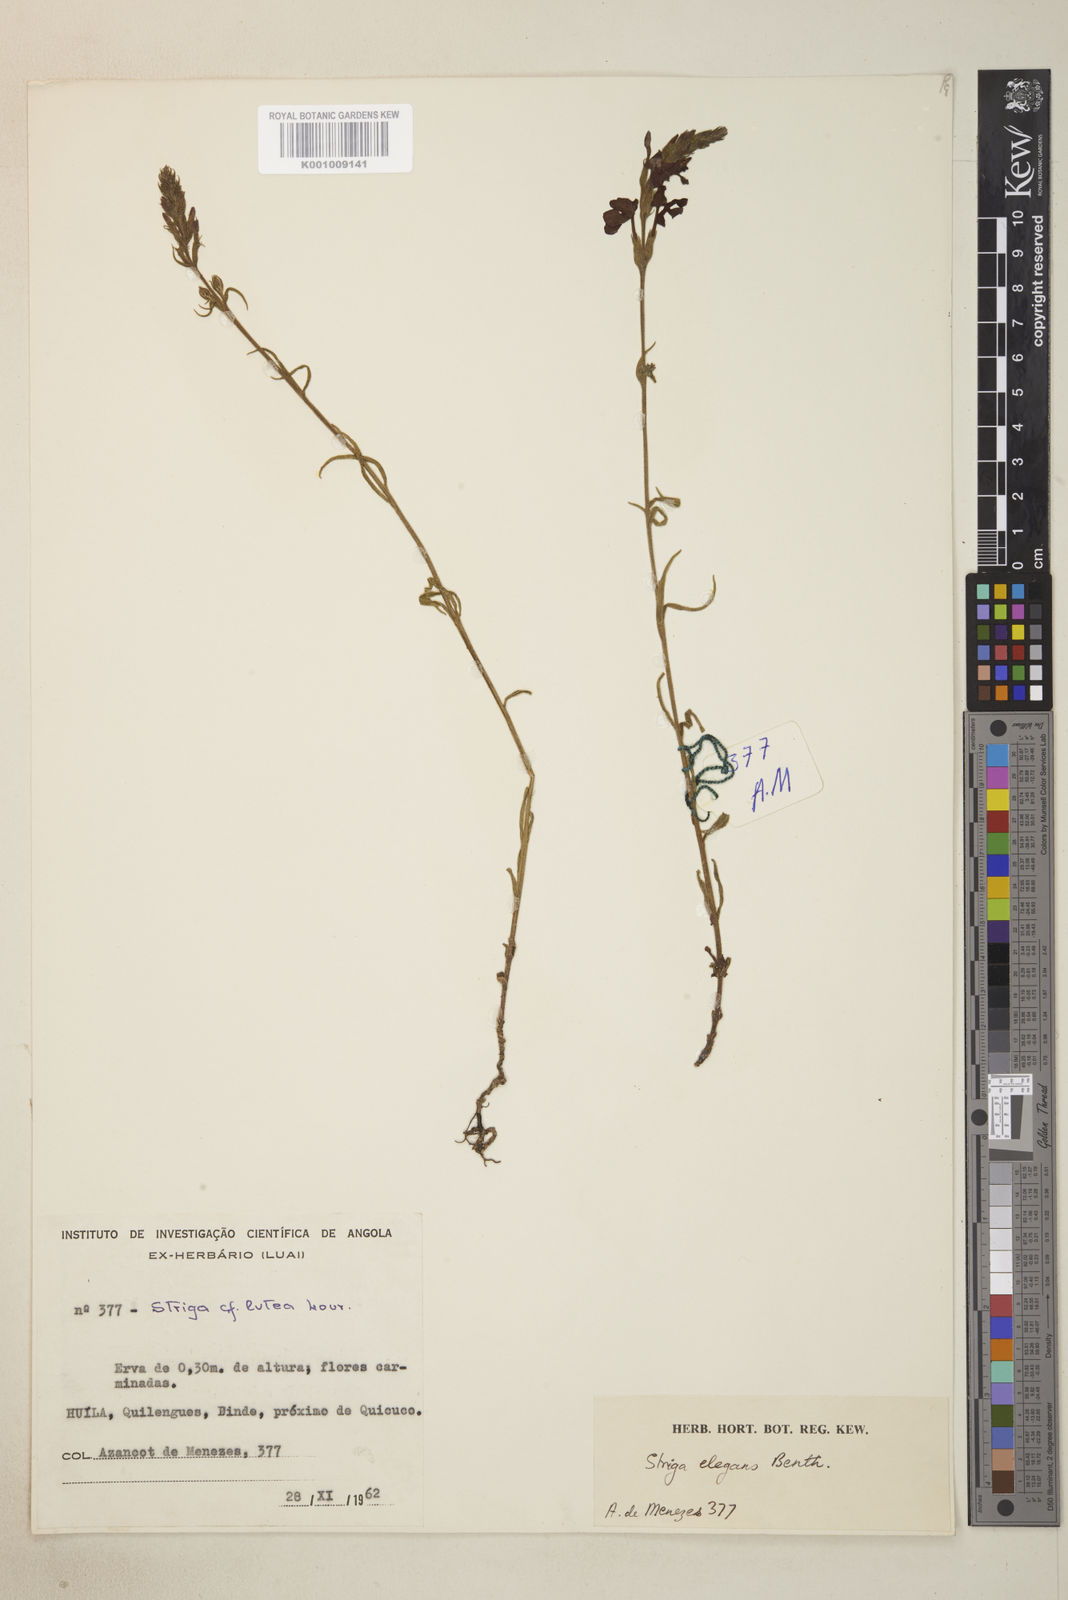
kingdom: Plantae
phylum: Tracheophyta
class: Magnoliopsida
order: Lamiales
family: Orobanchaceae
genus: Striga
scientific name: Striga elegans
